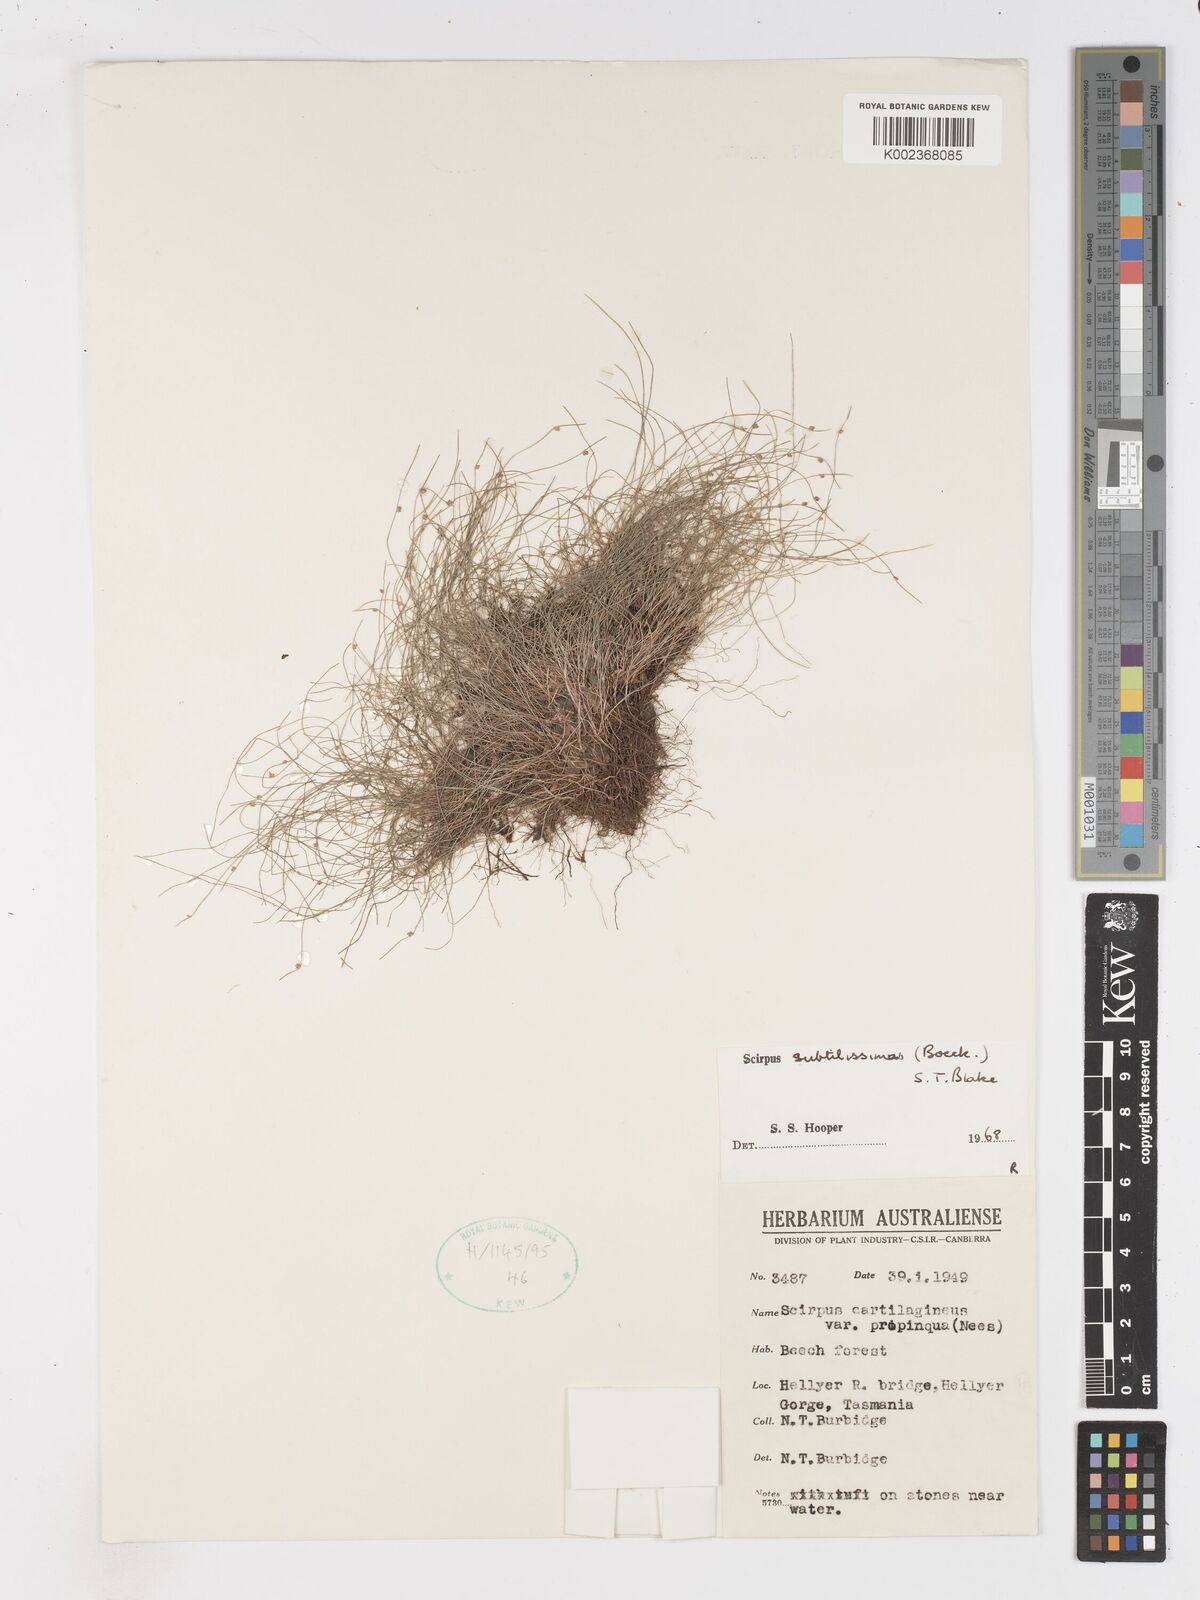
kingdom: Plantae
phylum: Tracheophyta
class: Liliopsida
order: Poales
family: Cyperaceae
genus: Isolepis
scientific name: Isolepis habra
